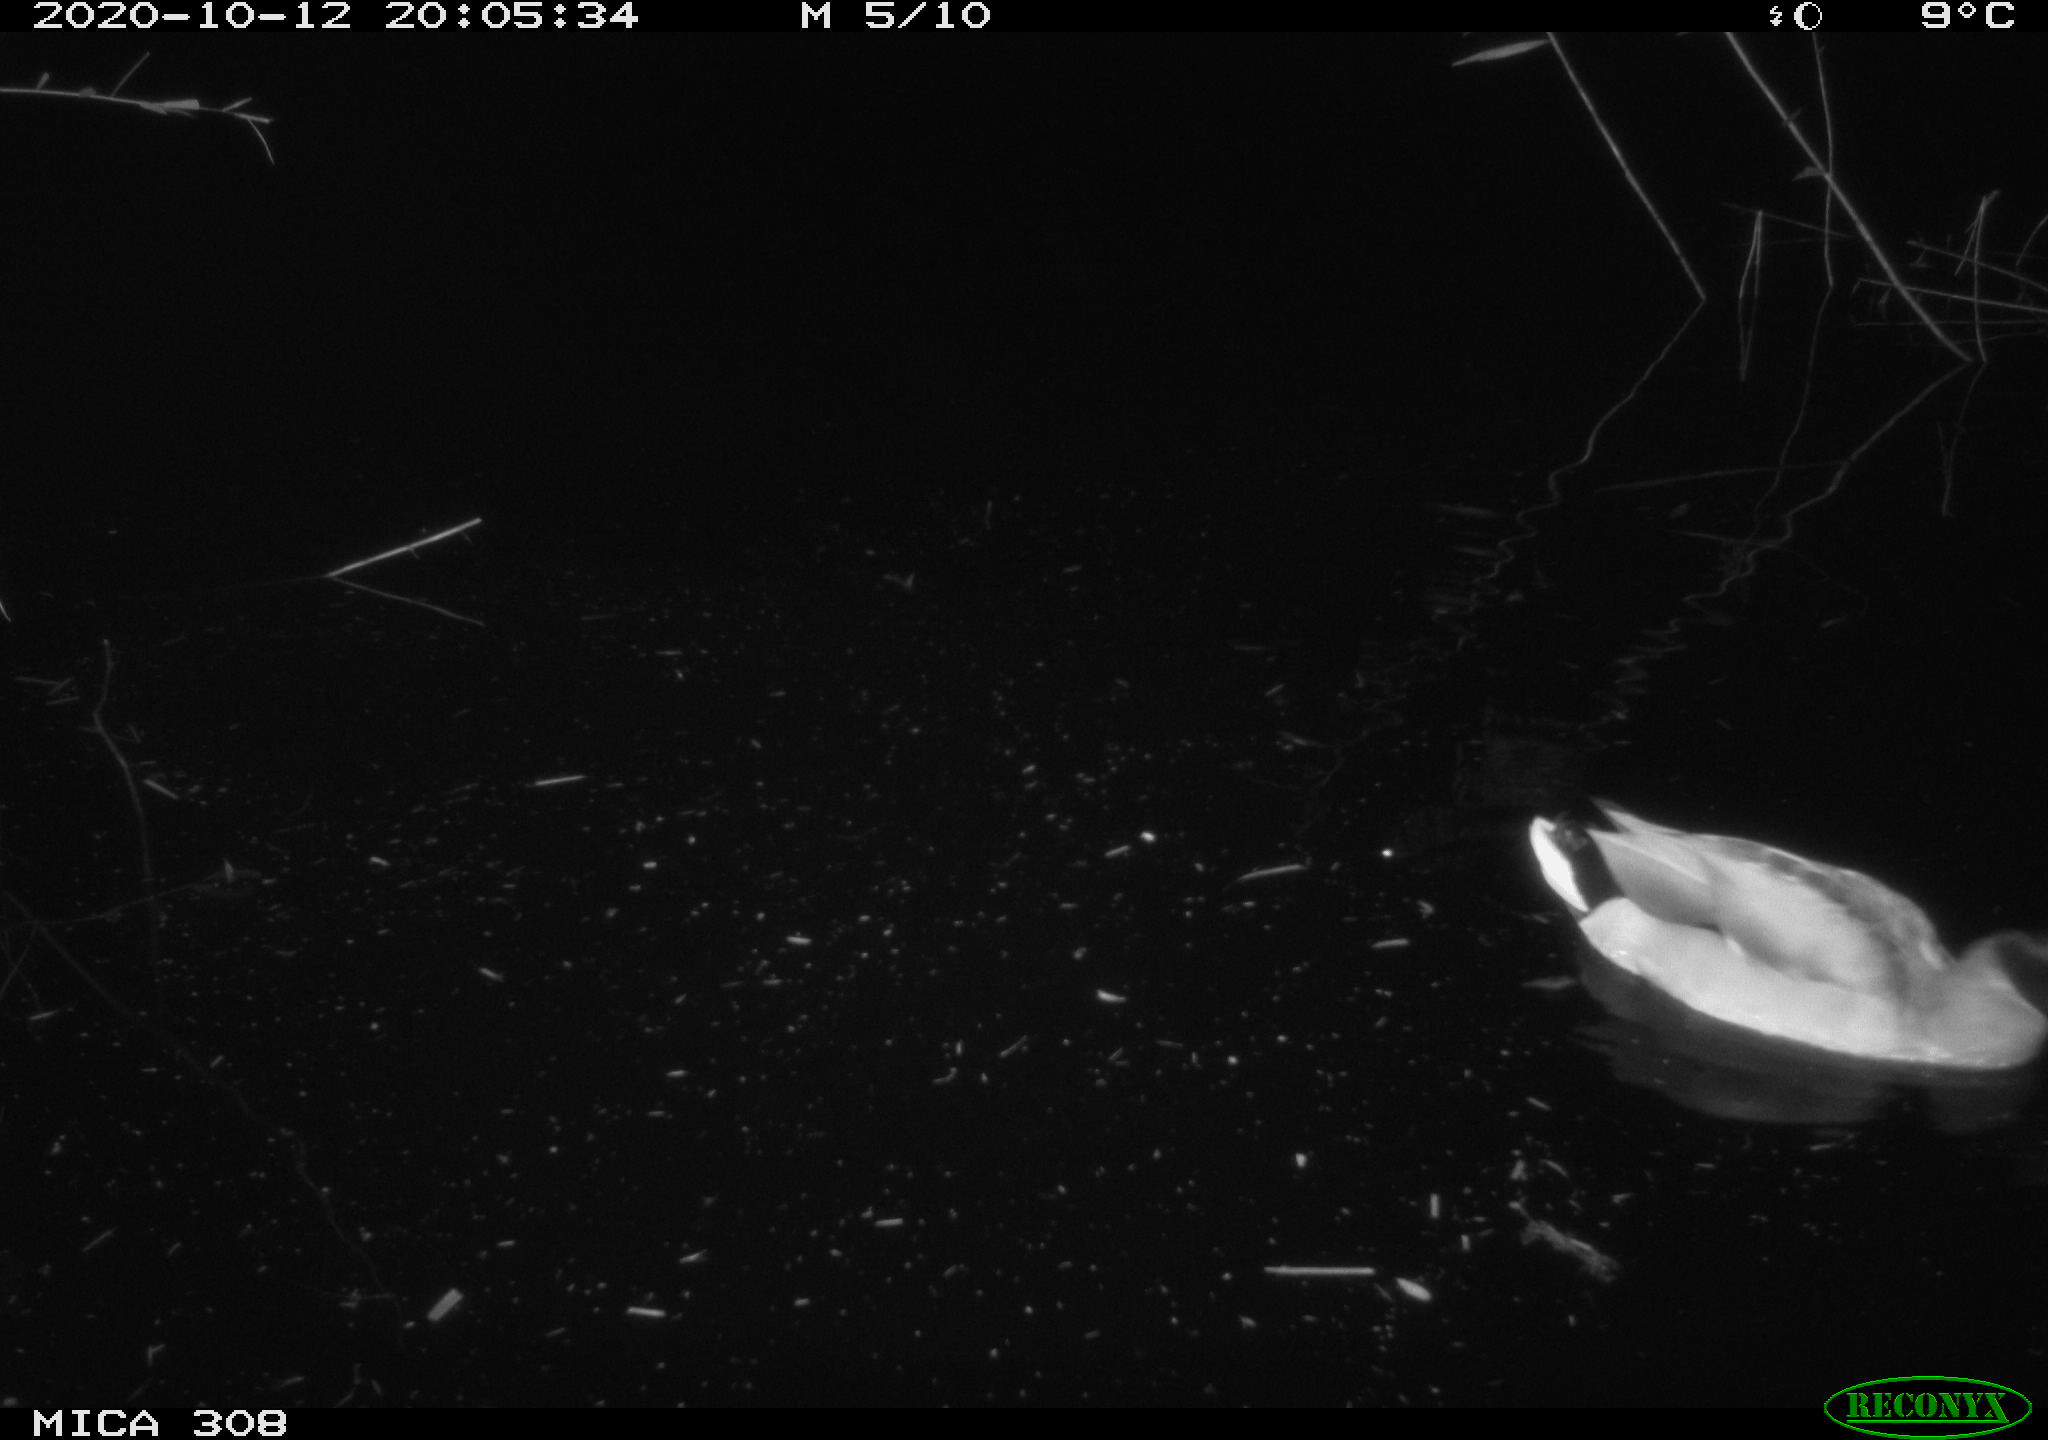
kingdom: Animalia
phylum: Chordata
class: Aves
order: Anseriformes
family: Anatidae
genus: Anas
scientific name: Anas platyrhynchos
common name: Mallard
